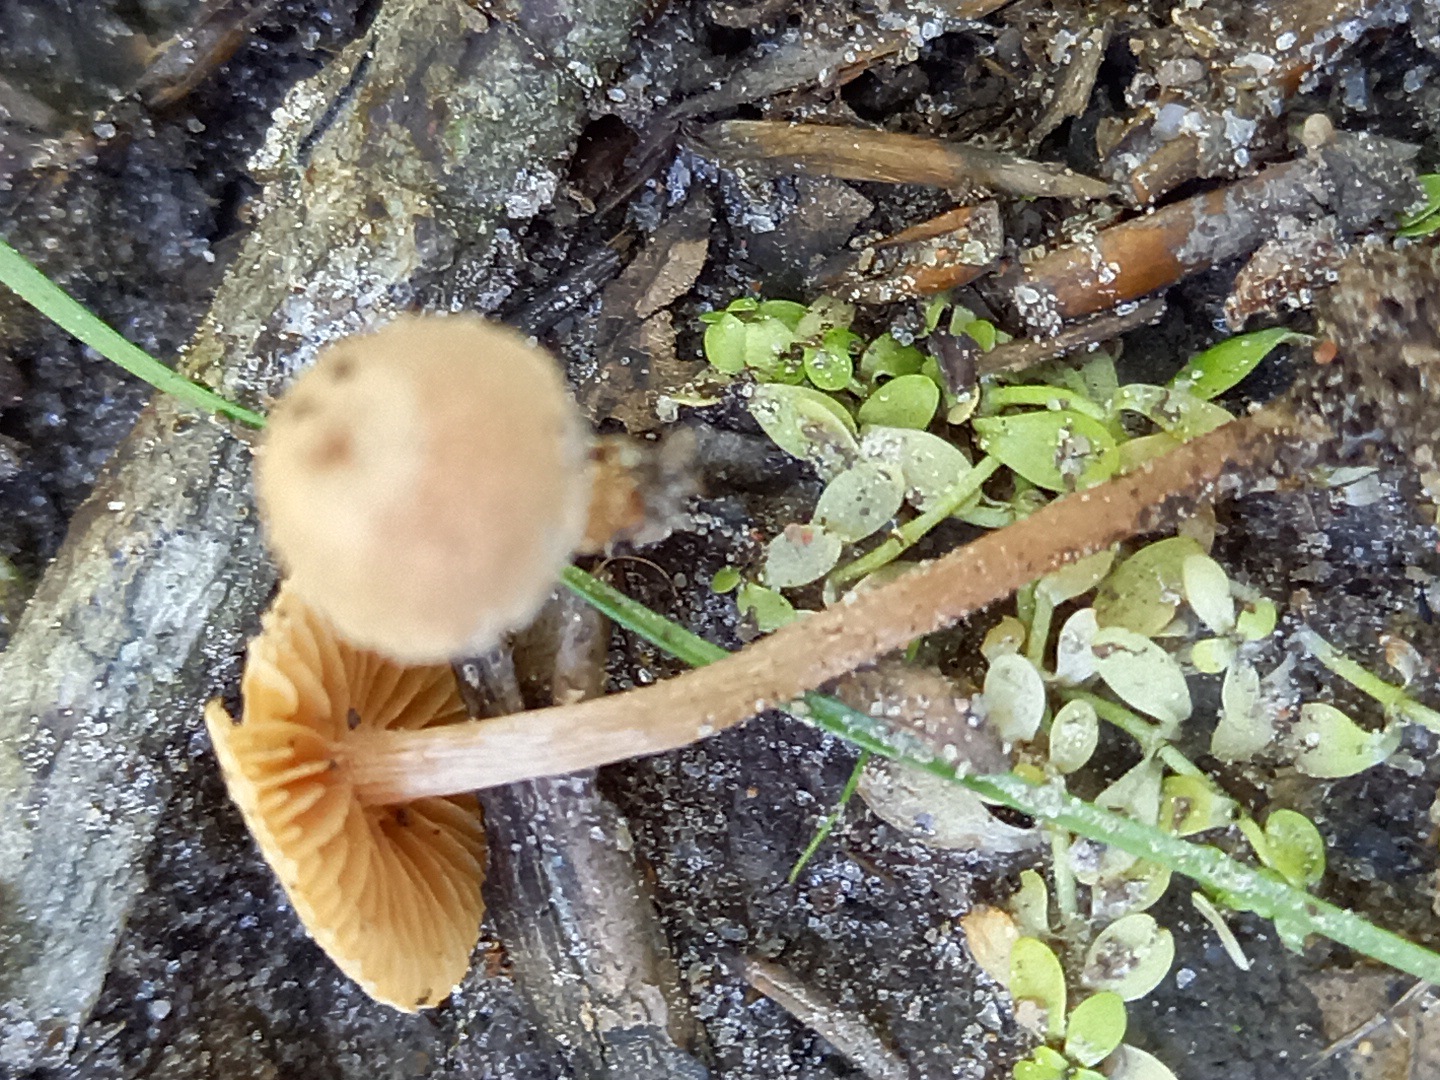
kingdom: Fungi
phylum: Basidiomycota
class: Agaricomycetes
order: Agaricales
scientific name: Agaricales
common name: champignonordenen
